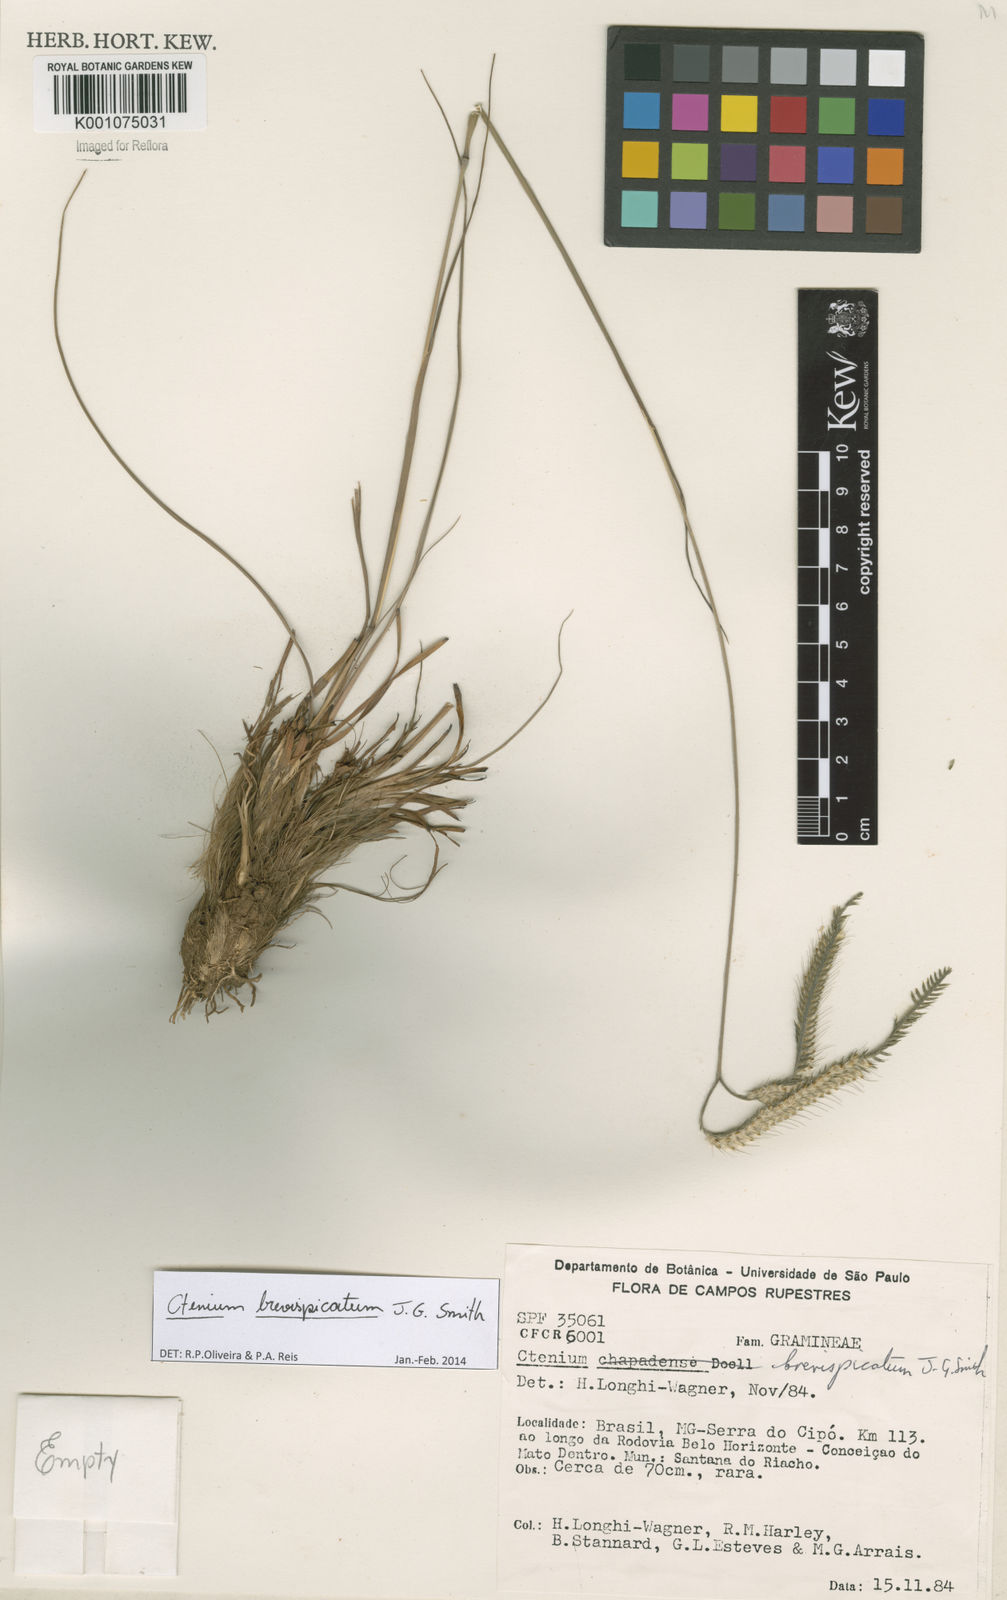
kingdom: Plantae
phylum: Tracheophyta
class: Liliopsida
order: Poales
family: Poaceae
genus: Ctenium
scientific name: Ctenium brevispicatum
